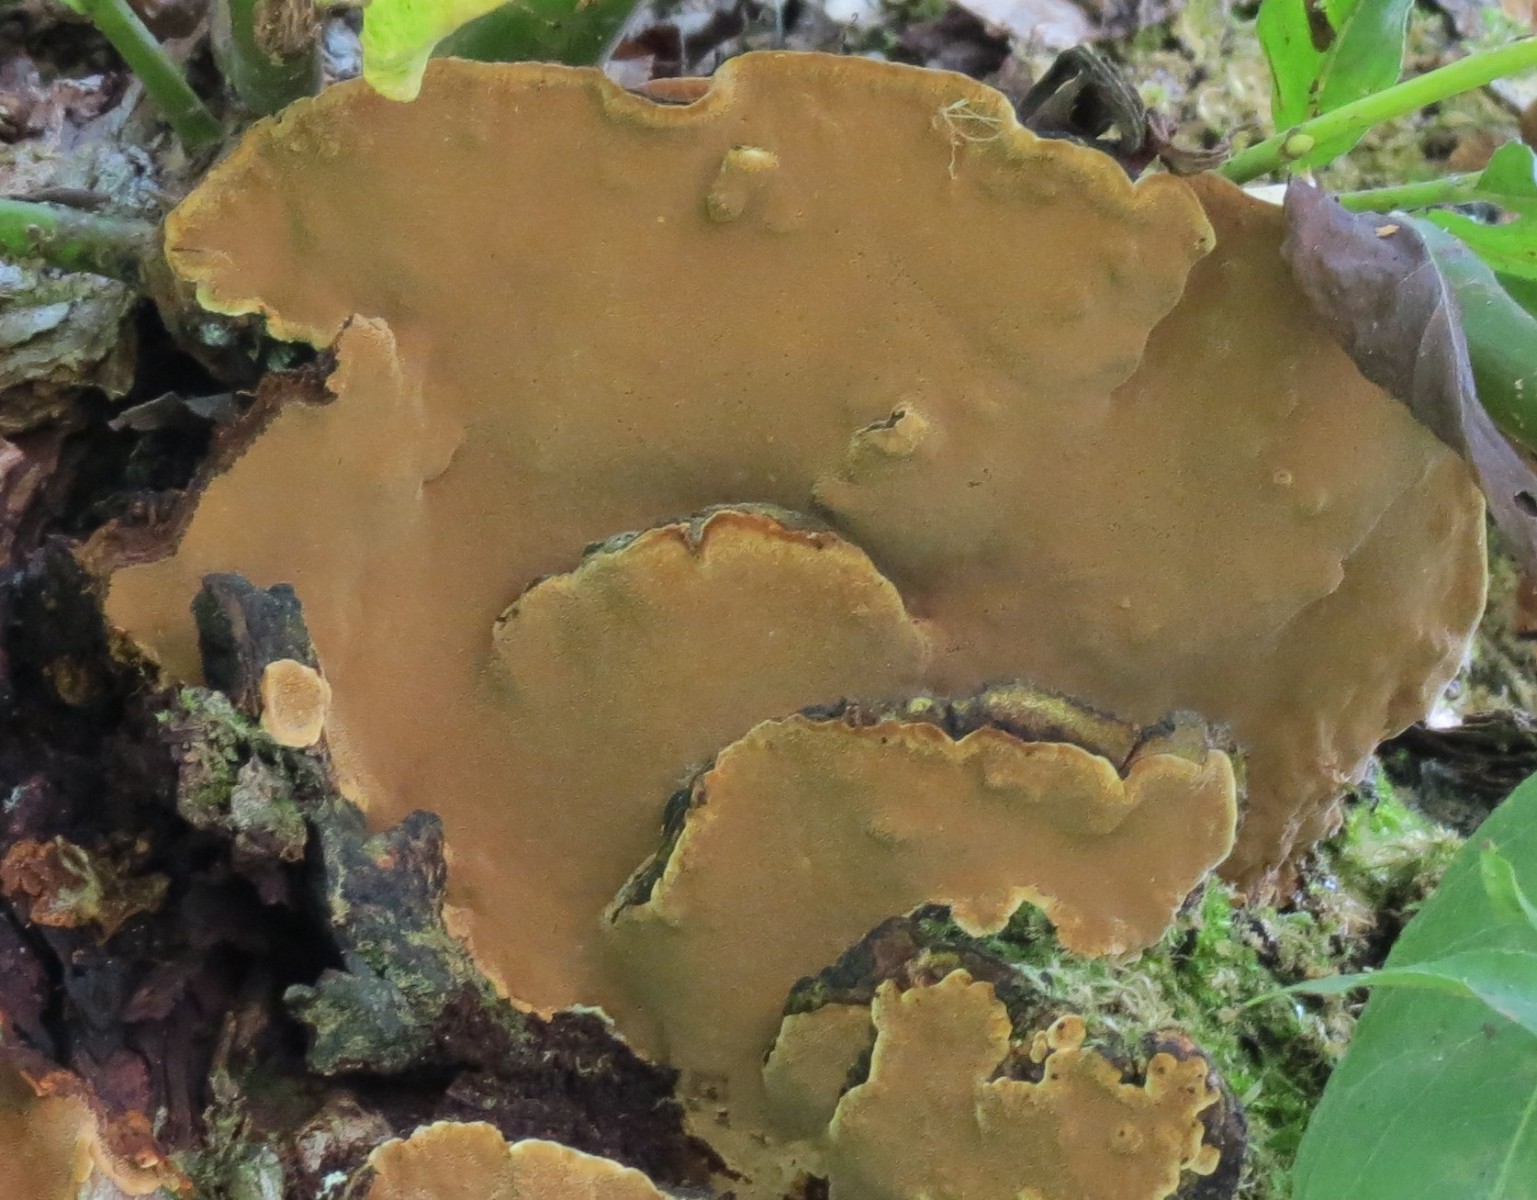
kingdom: Fungi
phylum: Basidiomycota
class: Agaricomycetes
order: Hymenochaetales
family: Hymenochaetaceae
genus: Phellinopsis
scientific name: Phellinopsis conchata
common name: pile-ildporesvamp
